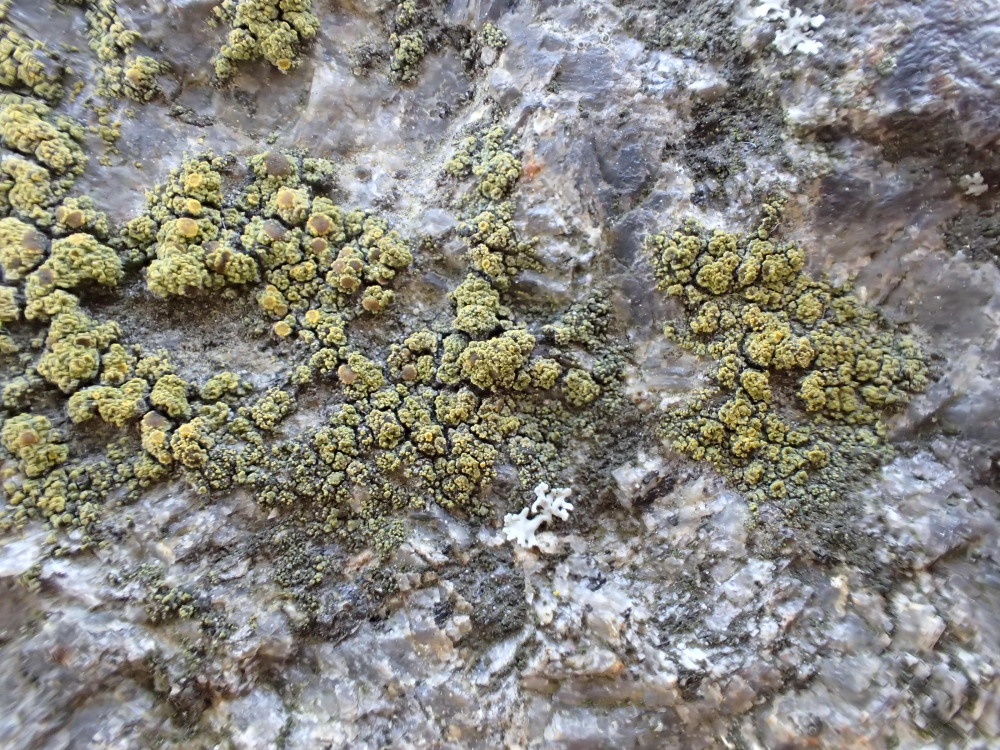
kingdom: Fungi
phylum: Ascomycota
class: Candelariomycetes
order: Candelariales
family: Candelariaceae
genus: Candelariella
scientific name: Candelariella vitellina
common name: almindelig æggeblommelav
